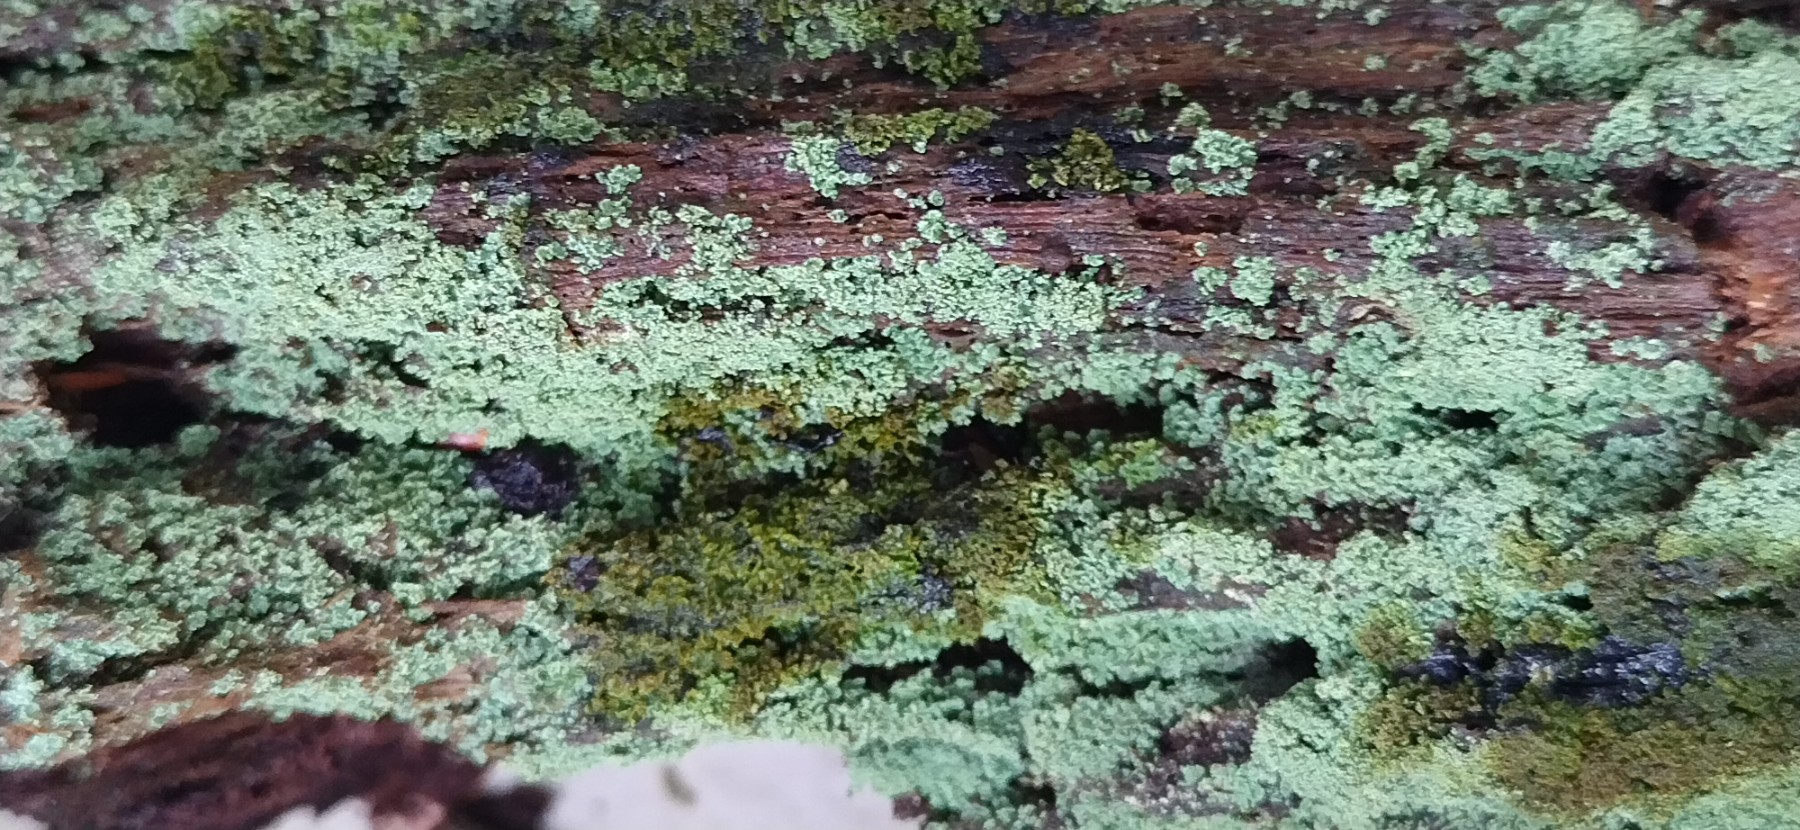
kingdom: Fungi
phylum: Ascomycota
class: Lecanoromycetes
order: Lecanorales
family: Cladoniaceae
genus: Cladonia
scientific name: Cladonia polydactyla
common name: vifte-bægerlav
